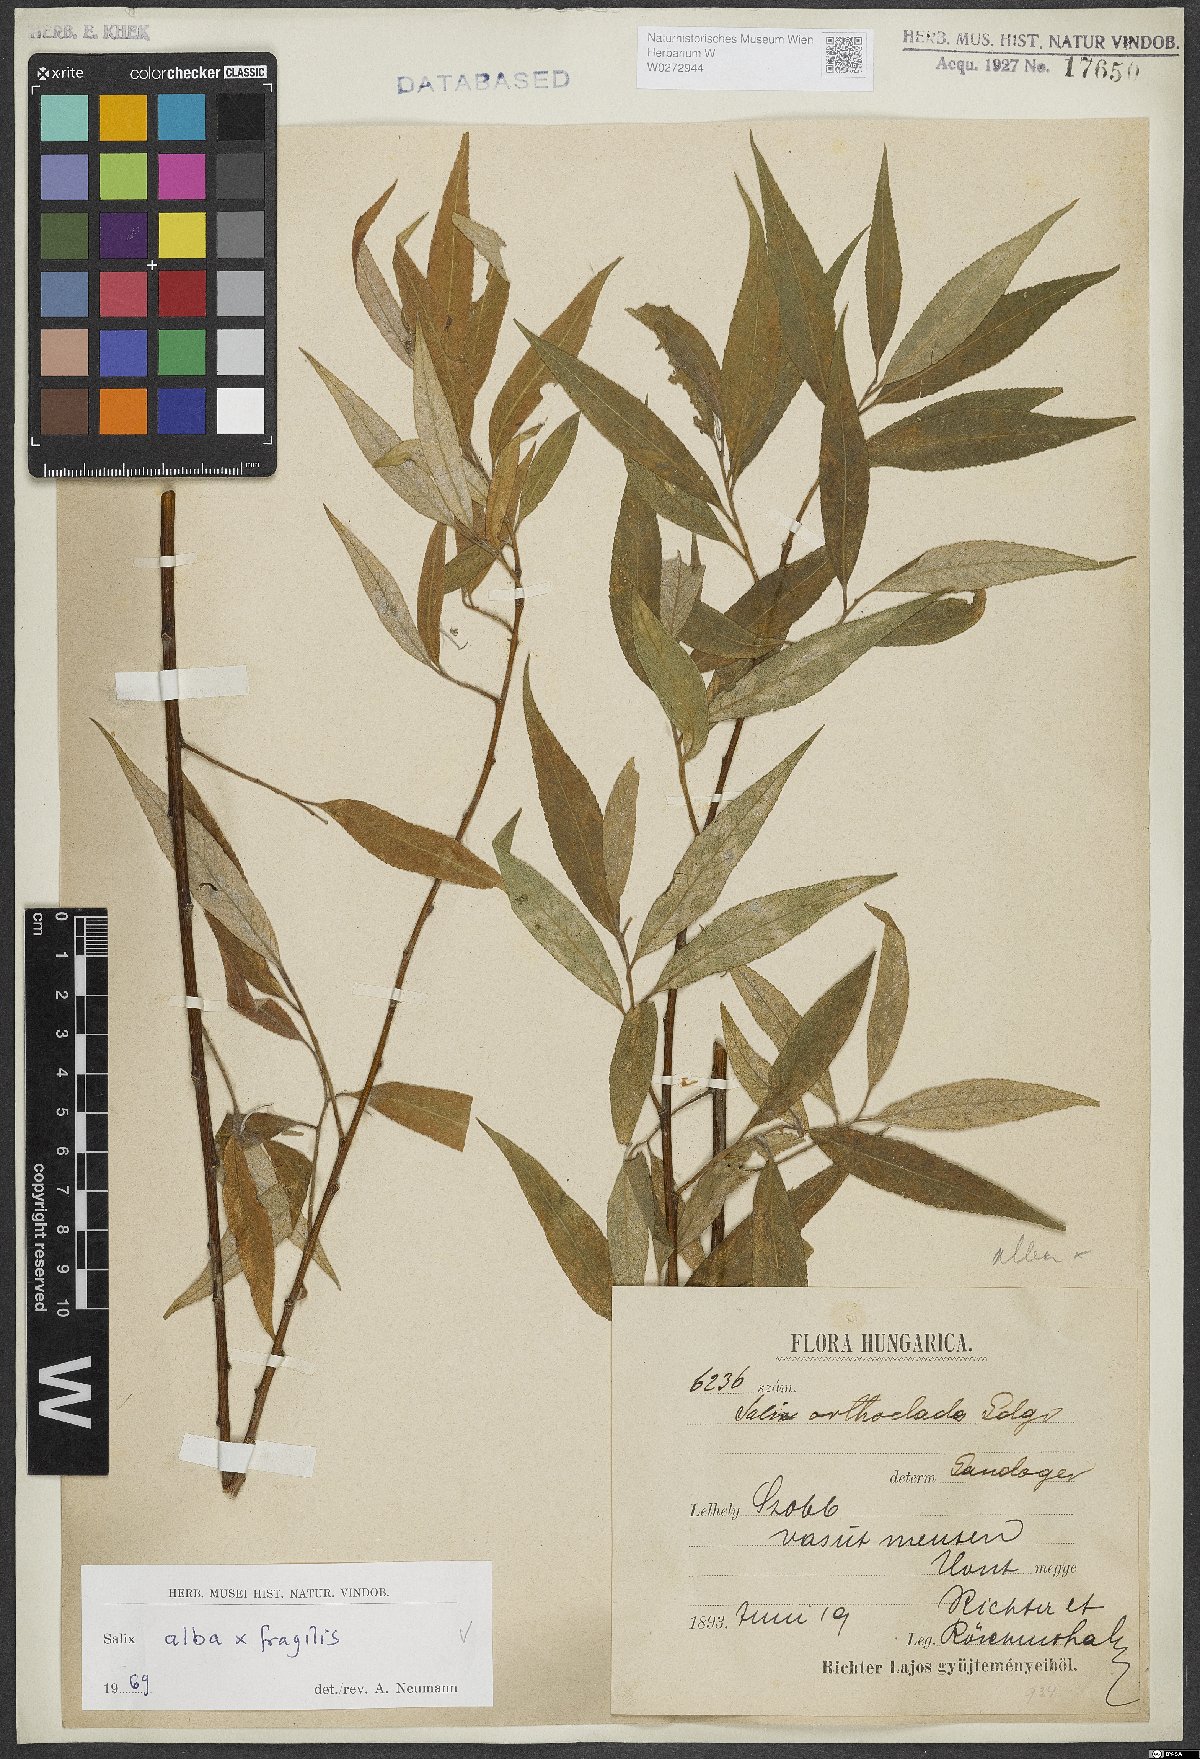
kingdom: Plantae
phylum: Tracheophyta
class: Magnoliopsida
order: Malpighiales
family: Salicaceae
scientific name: Salicaceae
